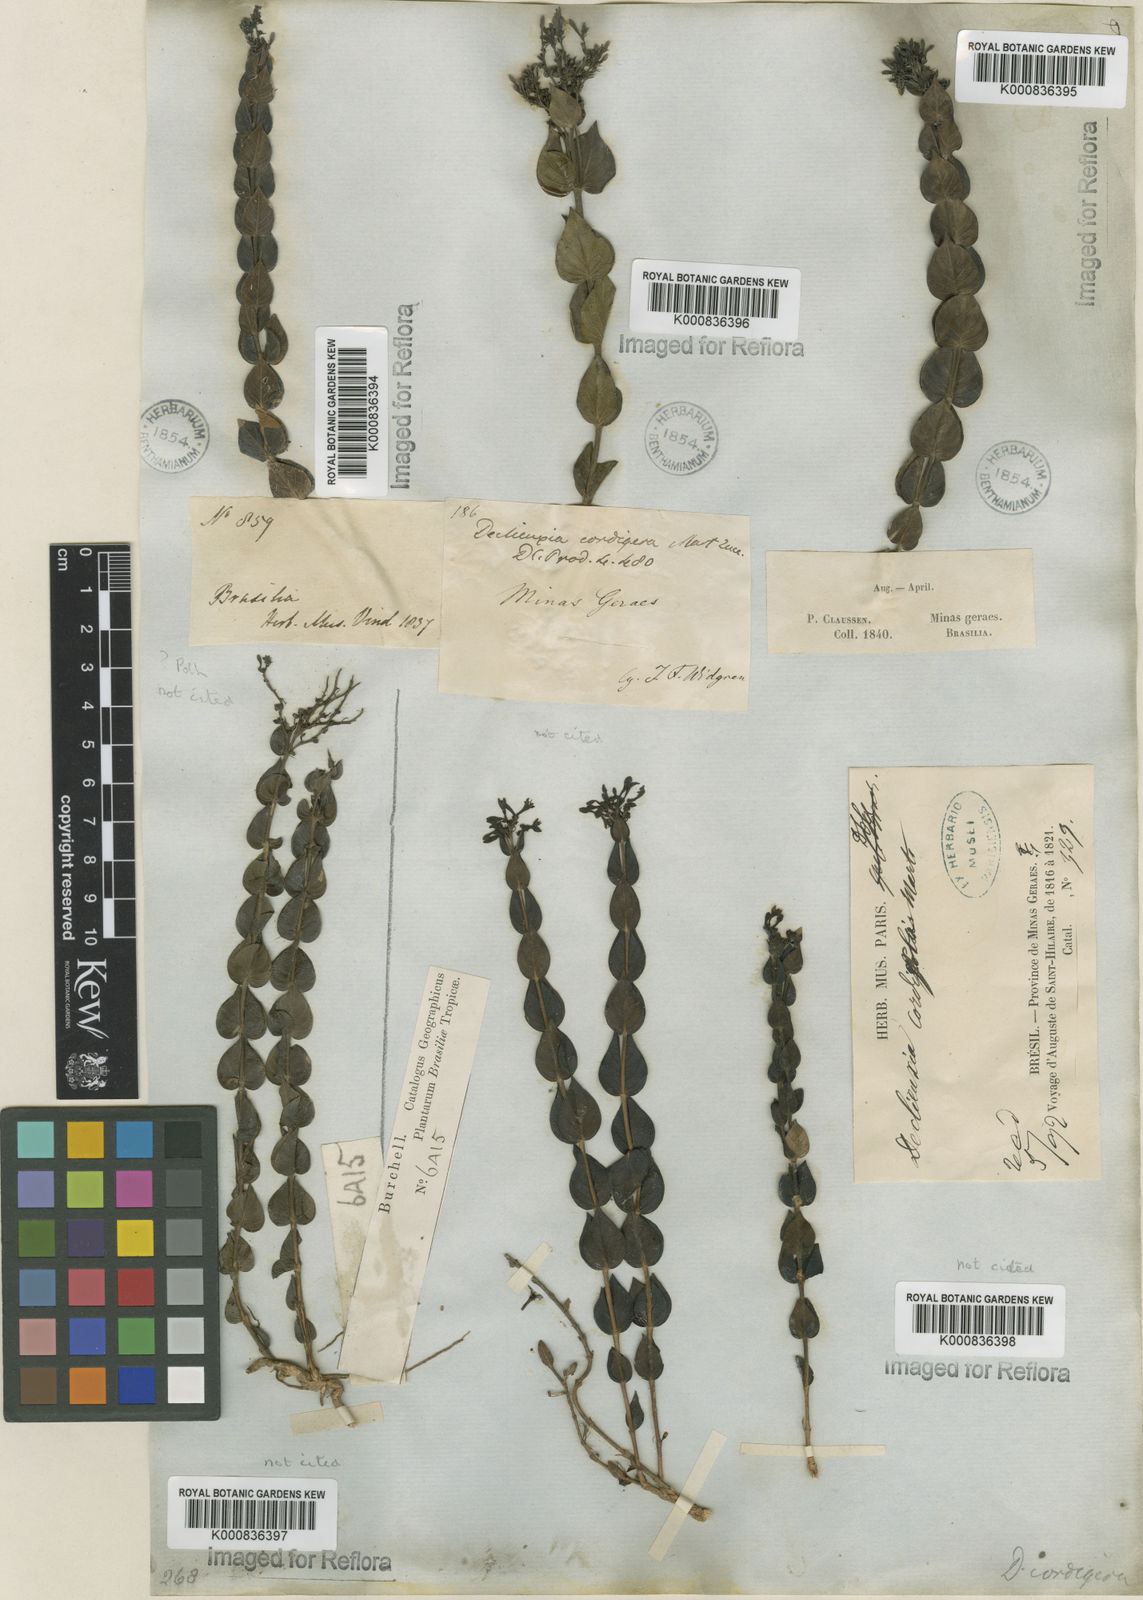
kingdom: Plantae
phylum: Tracheophyta
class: Magnoliopsida
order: Gentianales
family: Rubiaceae
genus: Declieuxia
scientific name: Declieuxia cordigera
